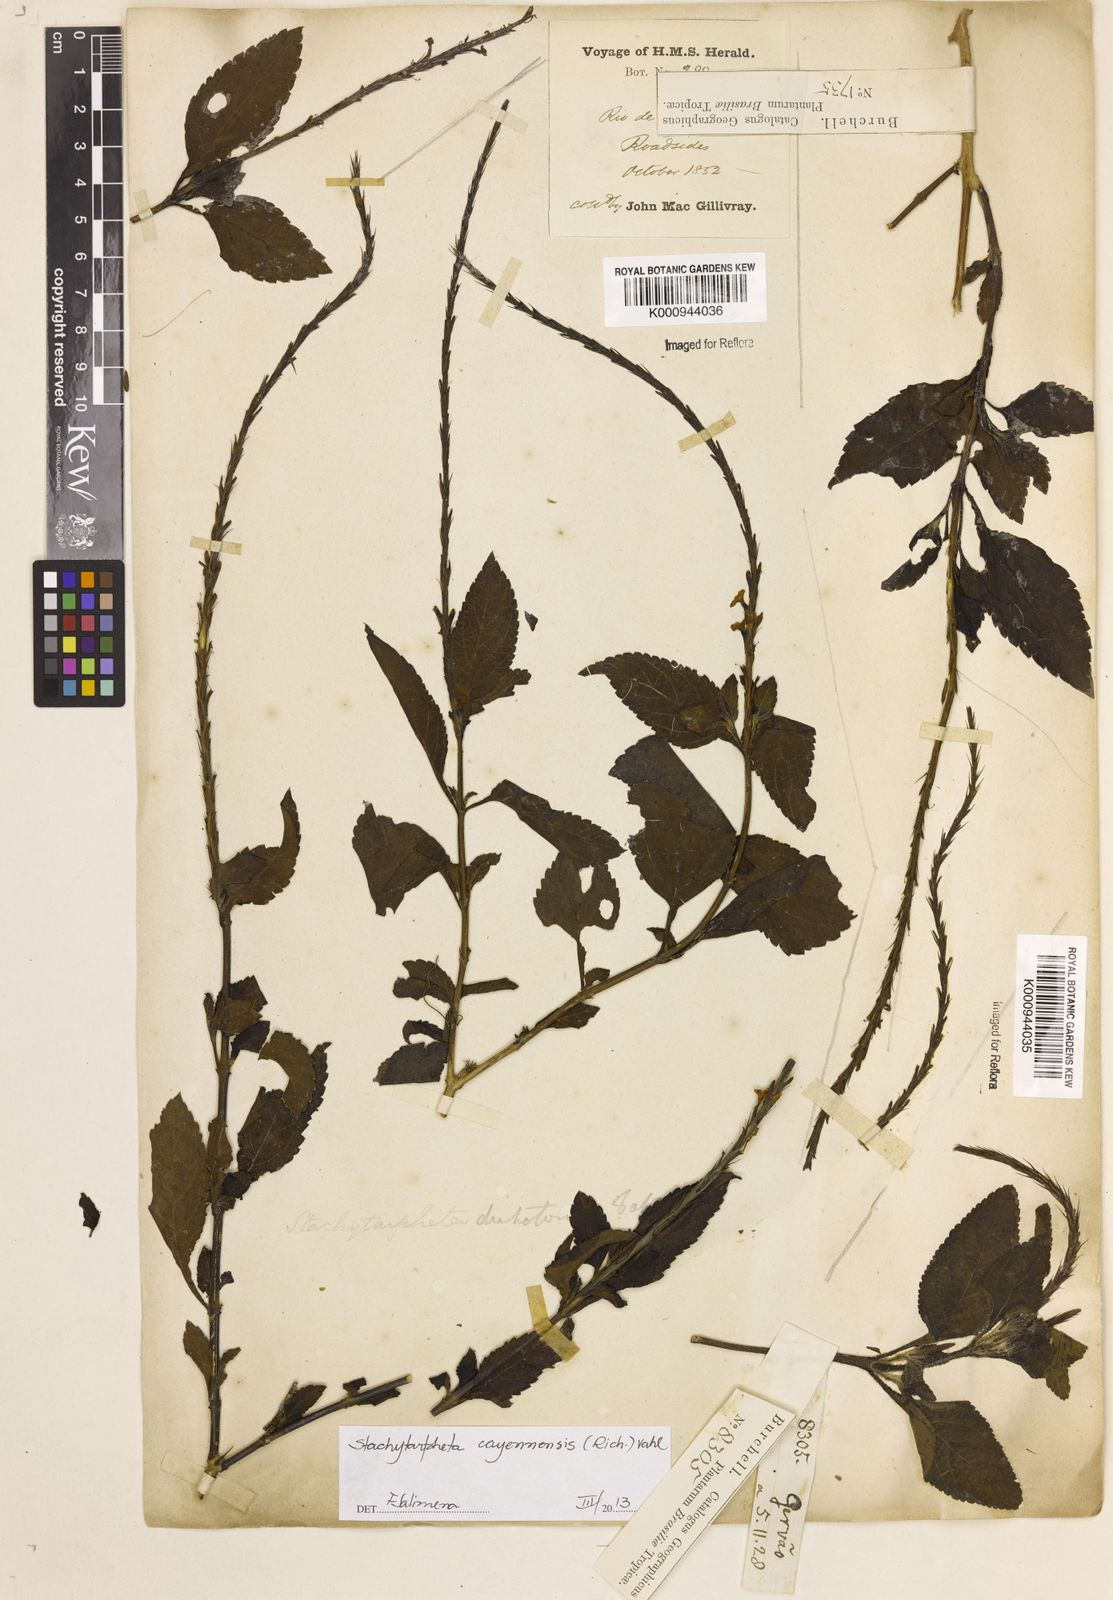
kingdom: Plantae
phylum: Tracheophyta
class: Magnoliopsida
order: Lamiales
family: Verbenaceae
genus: Aloysia
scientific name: Aloysia
